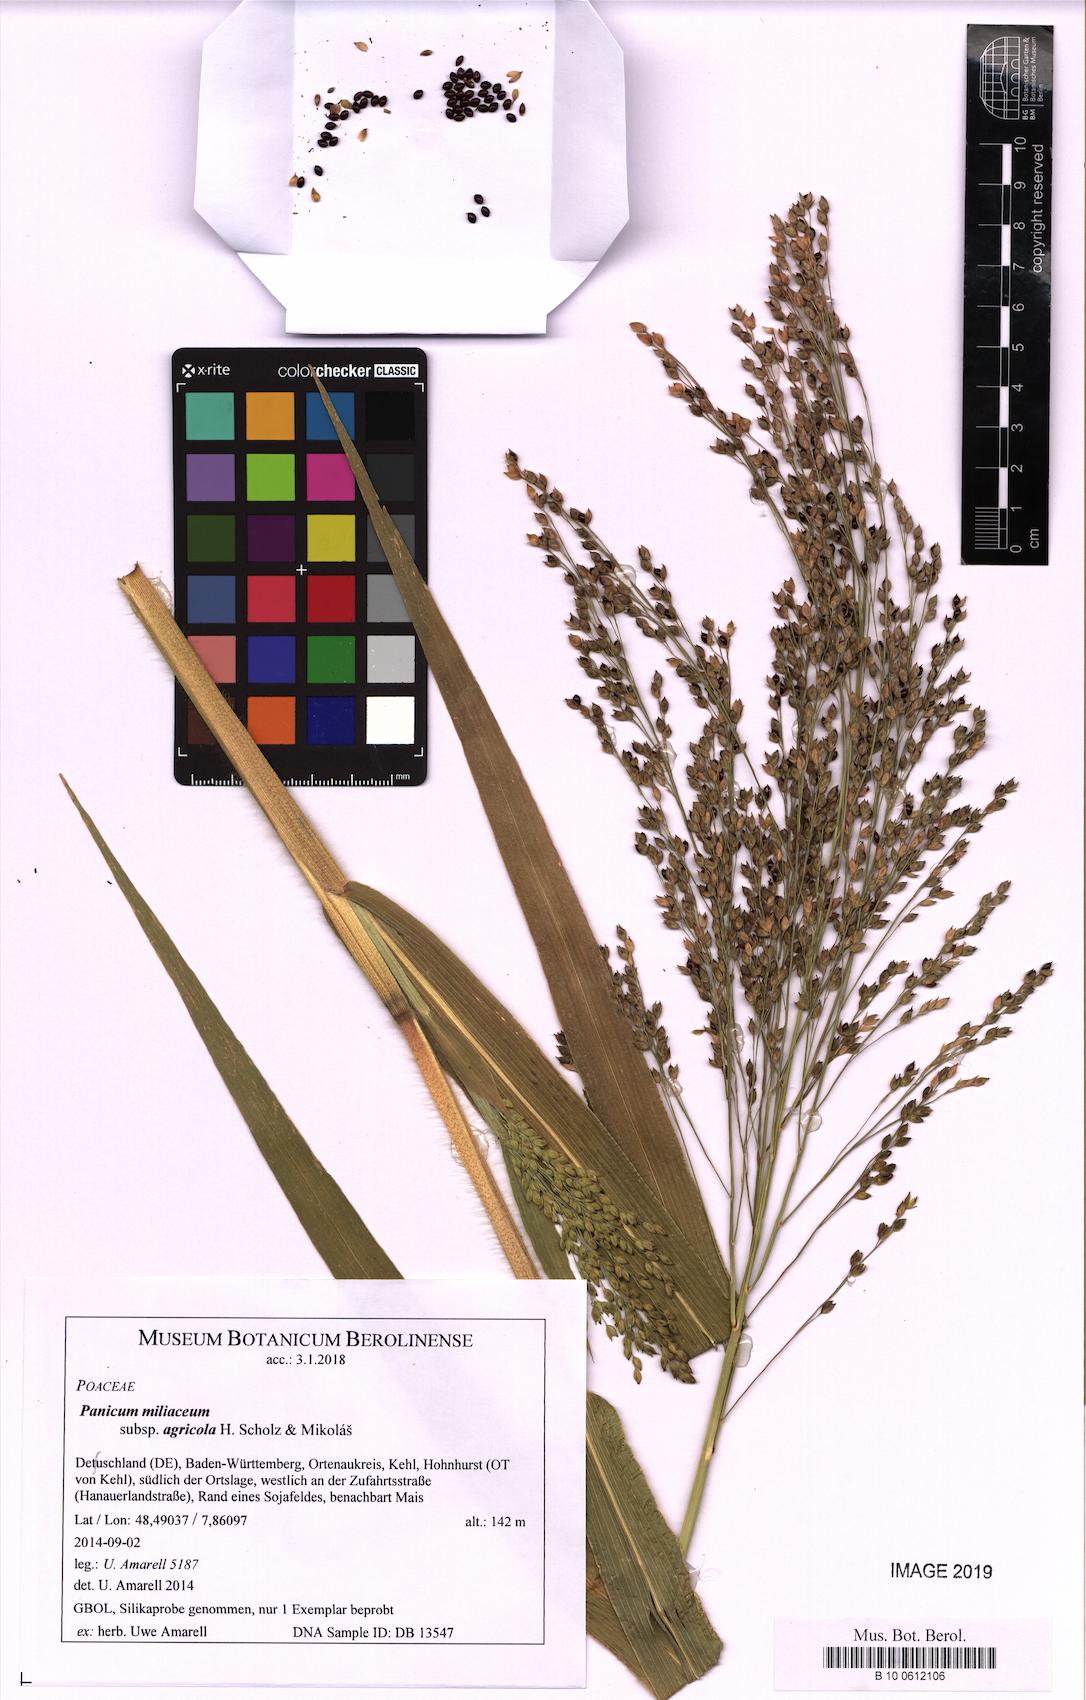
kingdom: Plantae
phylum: Tracheophyta
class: Liliopsida
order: Poales
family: Poaceae
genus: Panicum
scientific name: Panicum miliaceum
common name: Common millet
